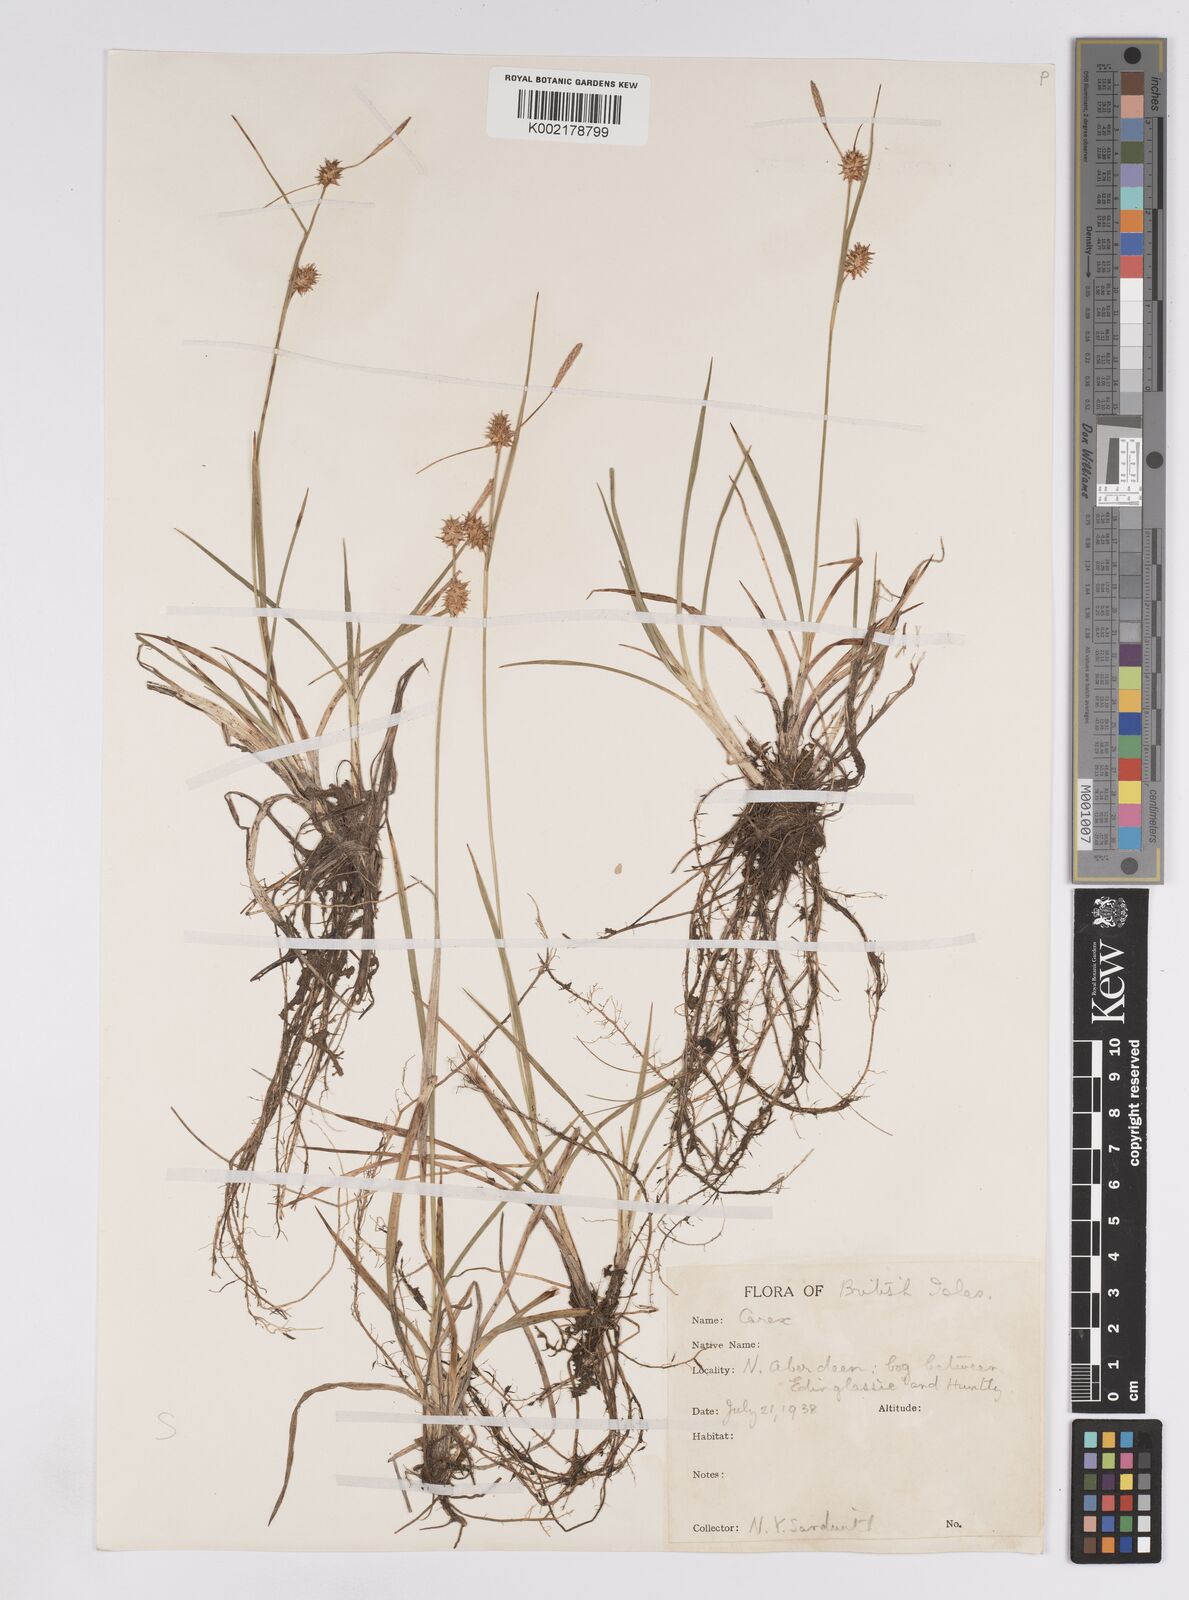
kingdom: Plantae
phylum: Tracheophyta
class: Liliopsida
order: Poales
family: Cyperaceae
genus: Carex
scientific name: Carex lepidocarpa
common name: Long-stalked yellow-sedge
